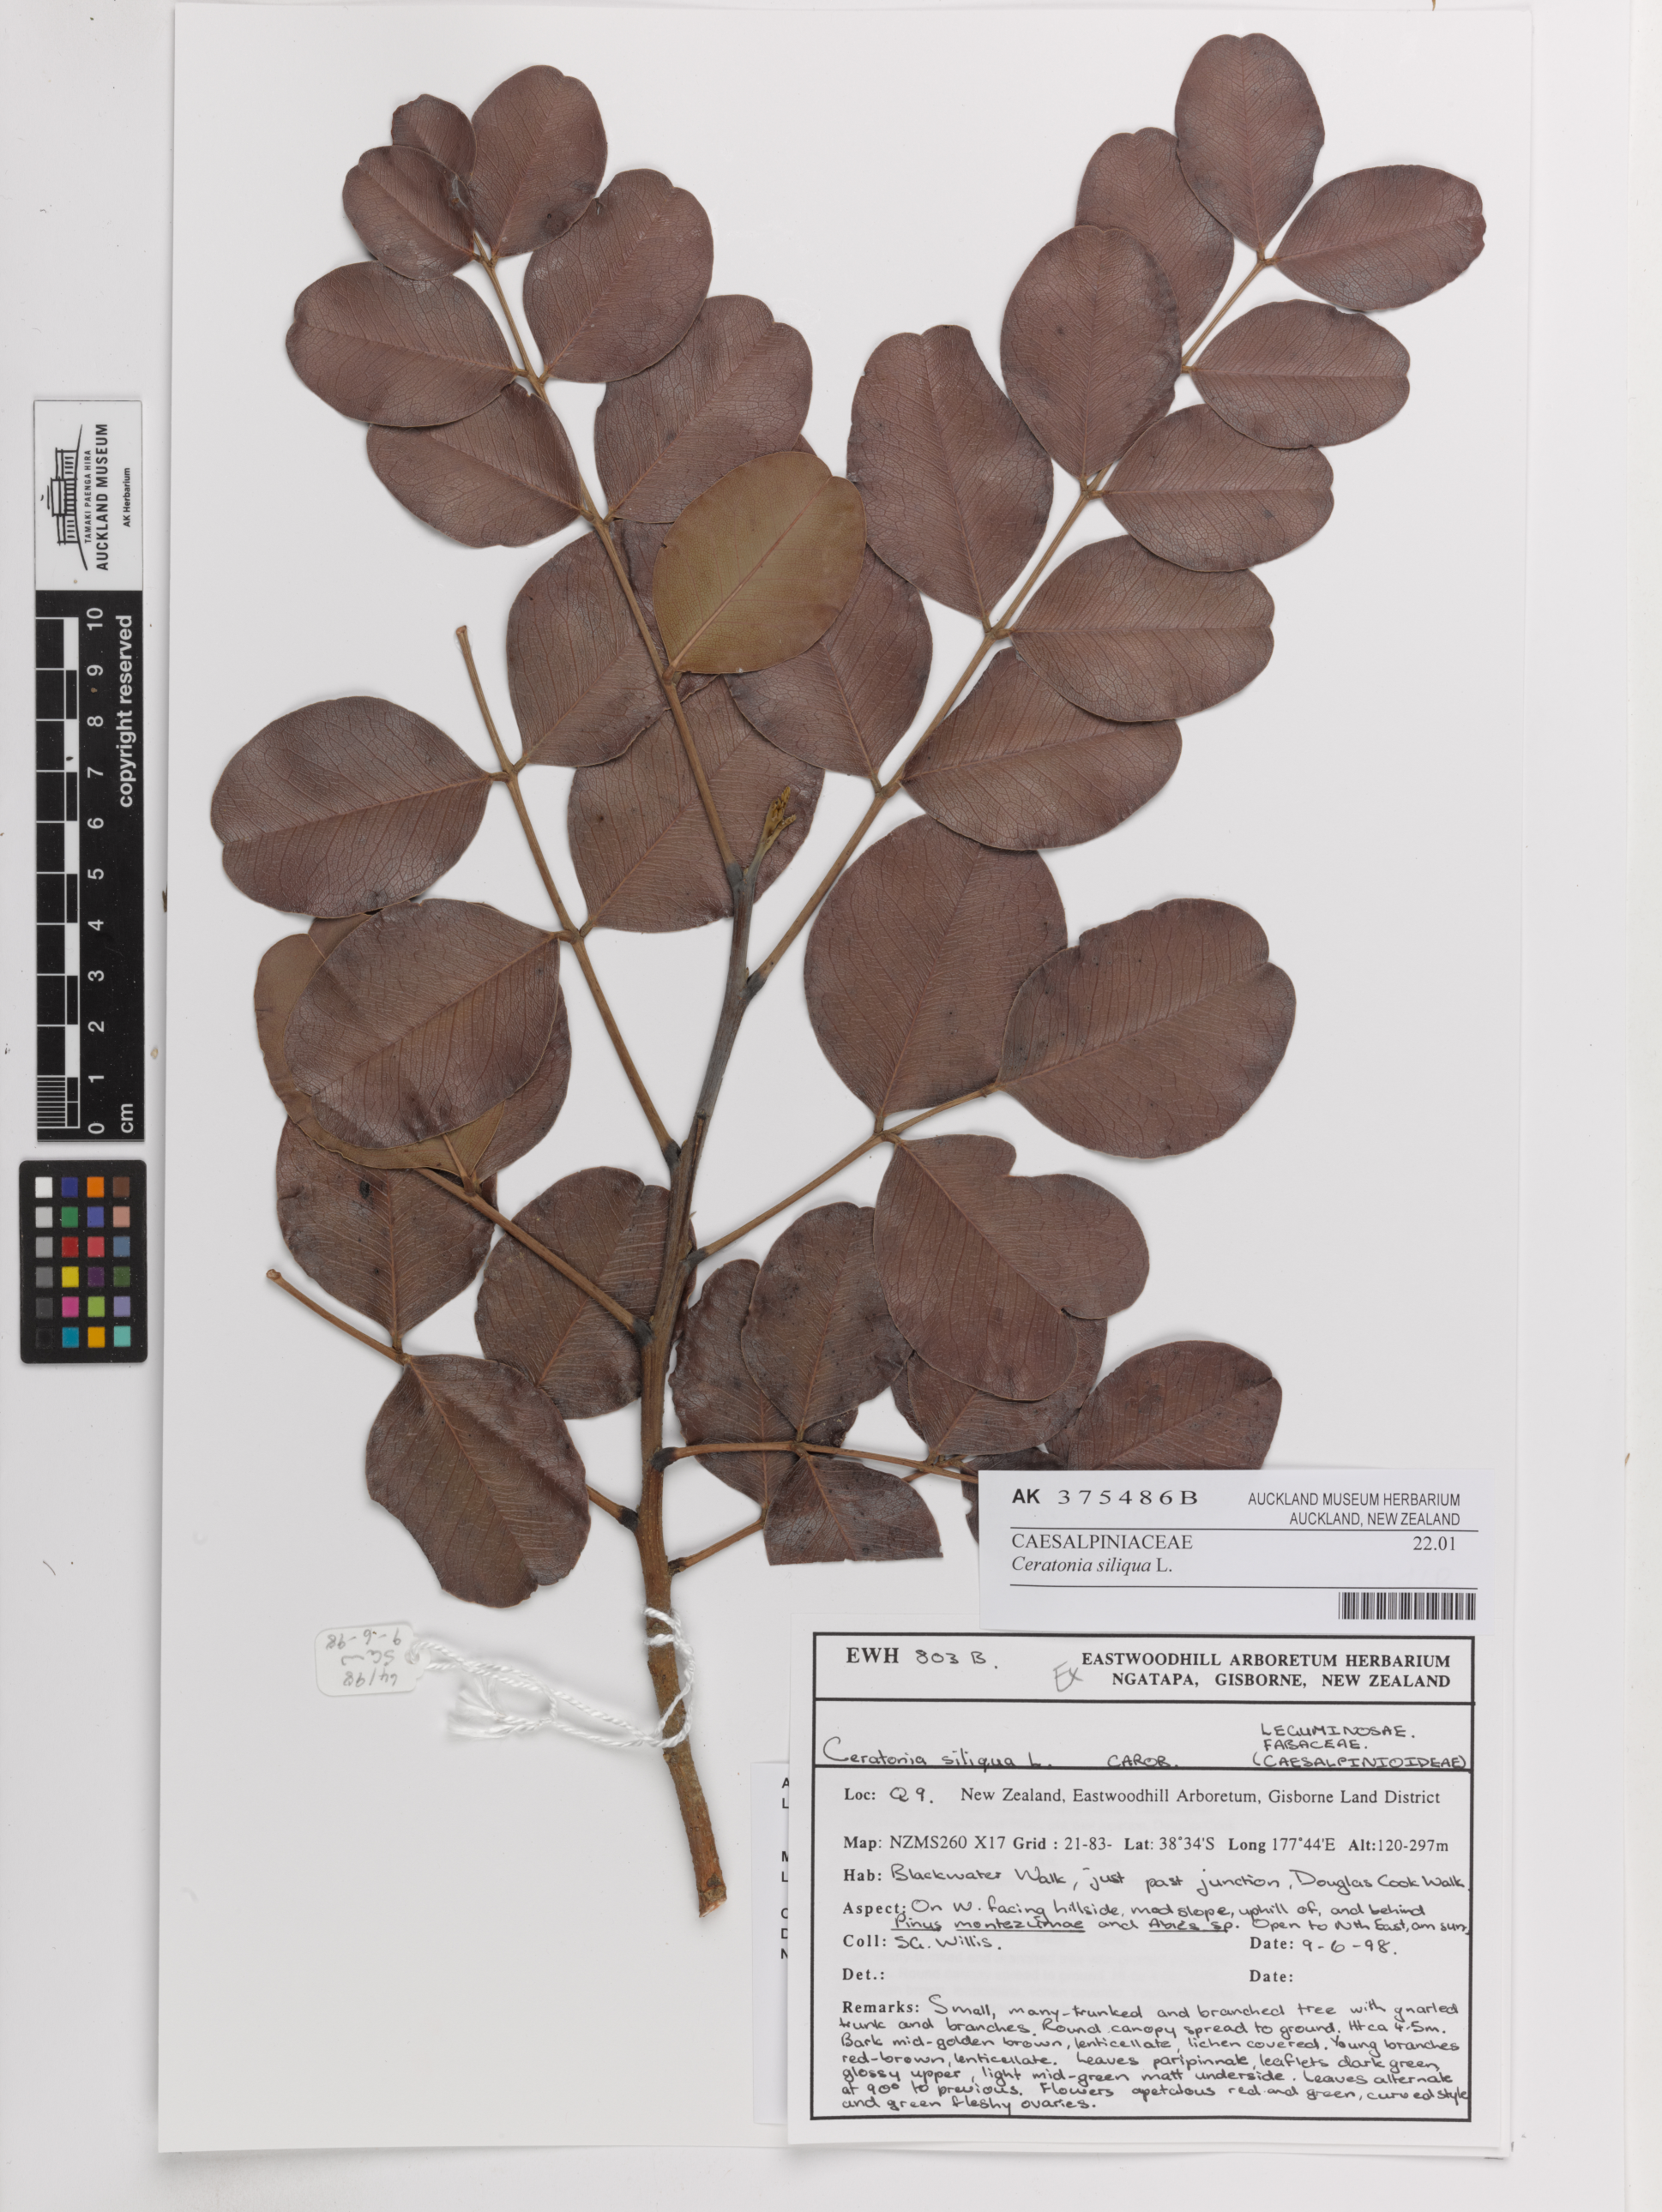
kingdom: Plantae
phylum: Tracheophyta
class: Magnoliopsida
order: Fabales
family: Fabaceae
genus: Ceratonia
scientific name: Ceratonia siliqua
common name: Carob
